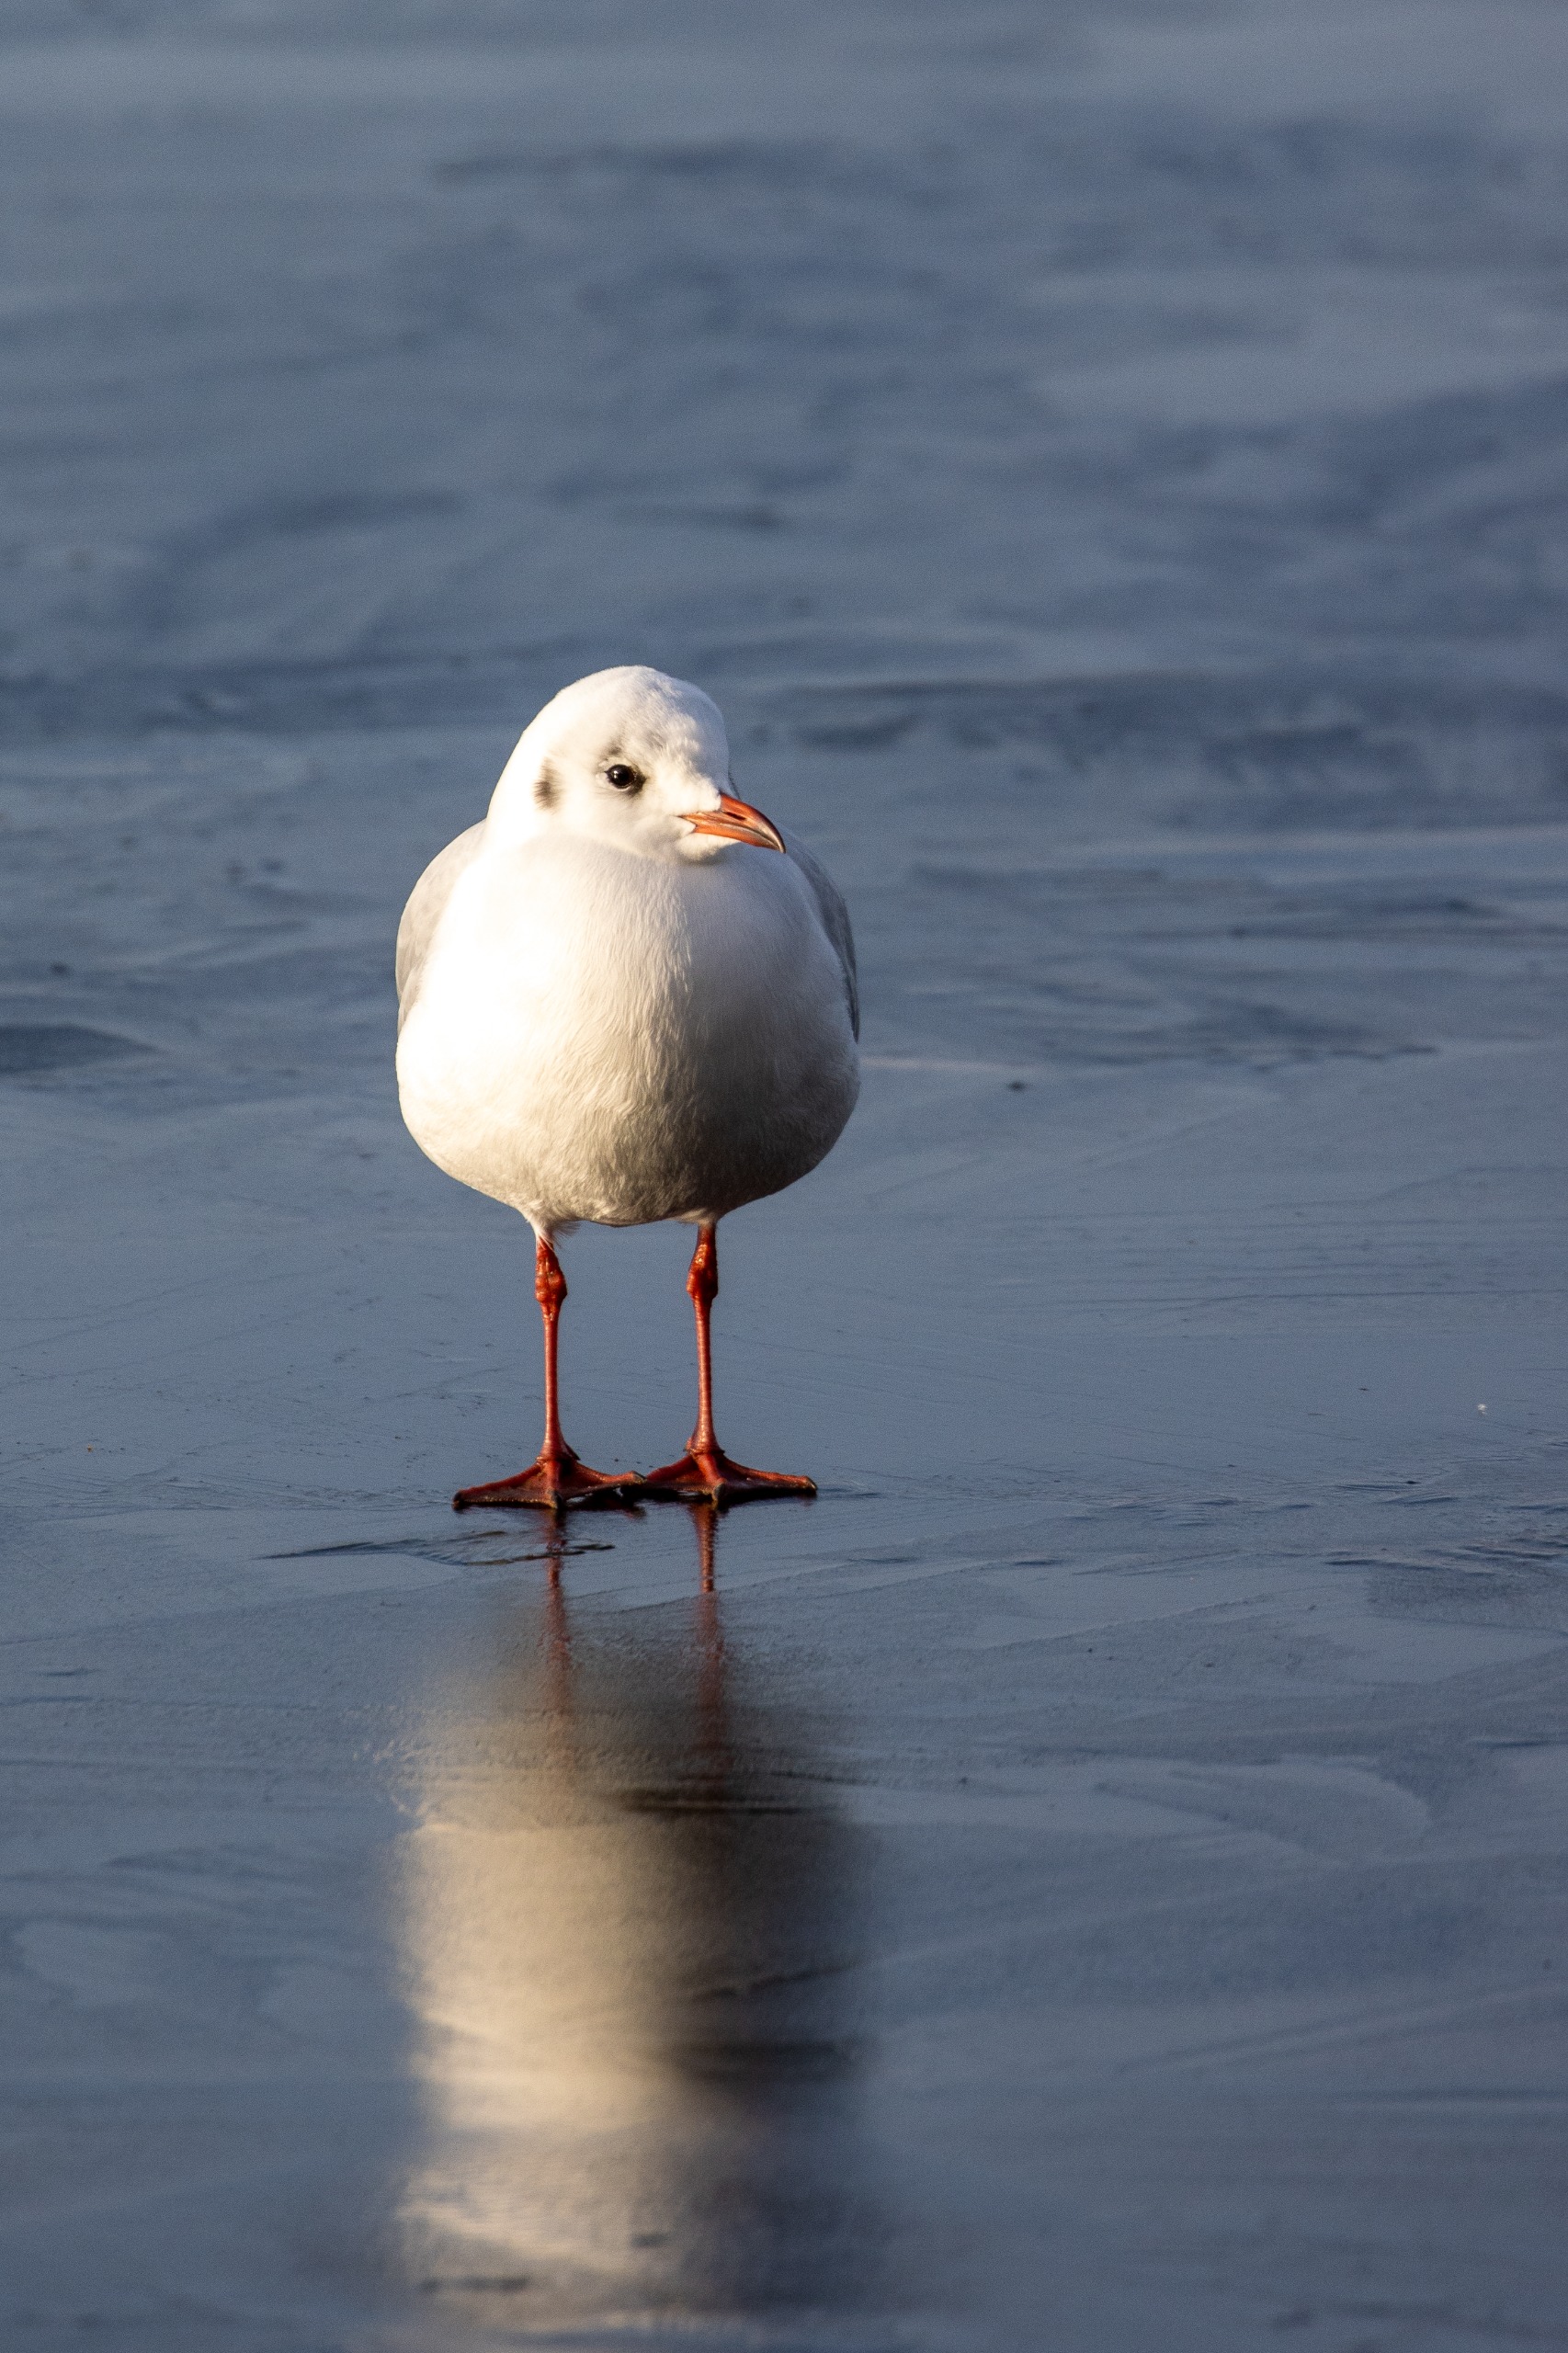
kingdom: Animalia
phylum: Chordata
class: Aves
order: Charadriiformes
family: Laridae
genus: Chroicocephalus
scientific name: Chroicocephalus ridibundus
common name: Hættemåge
